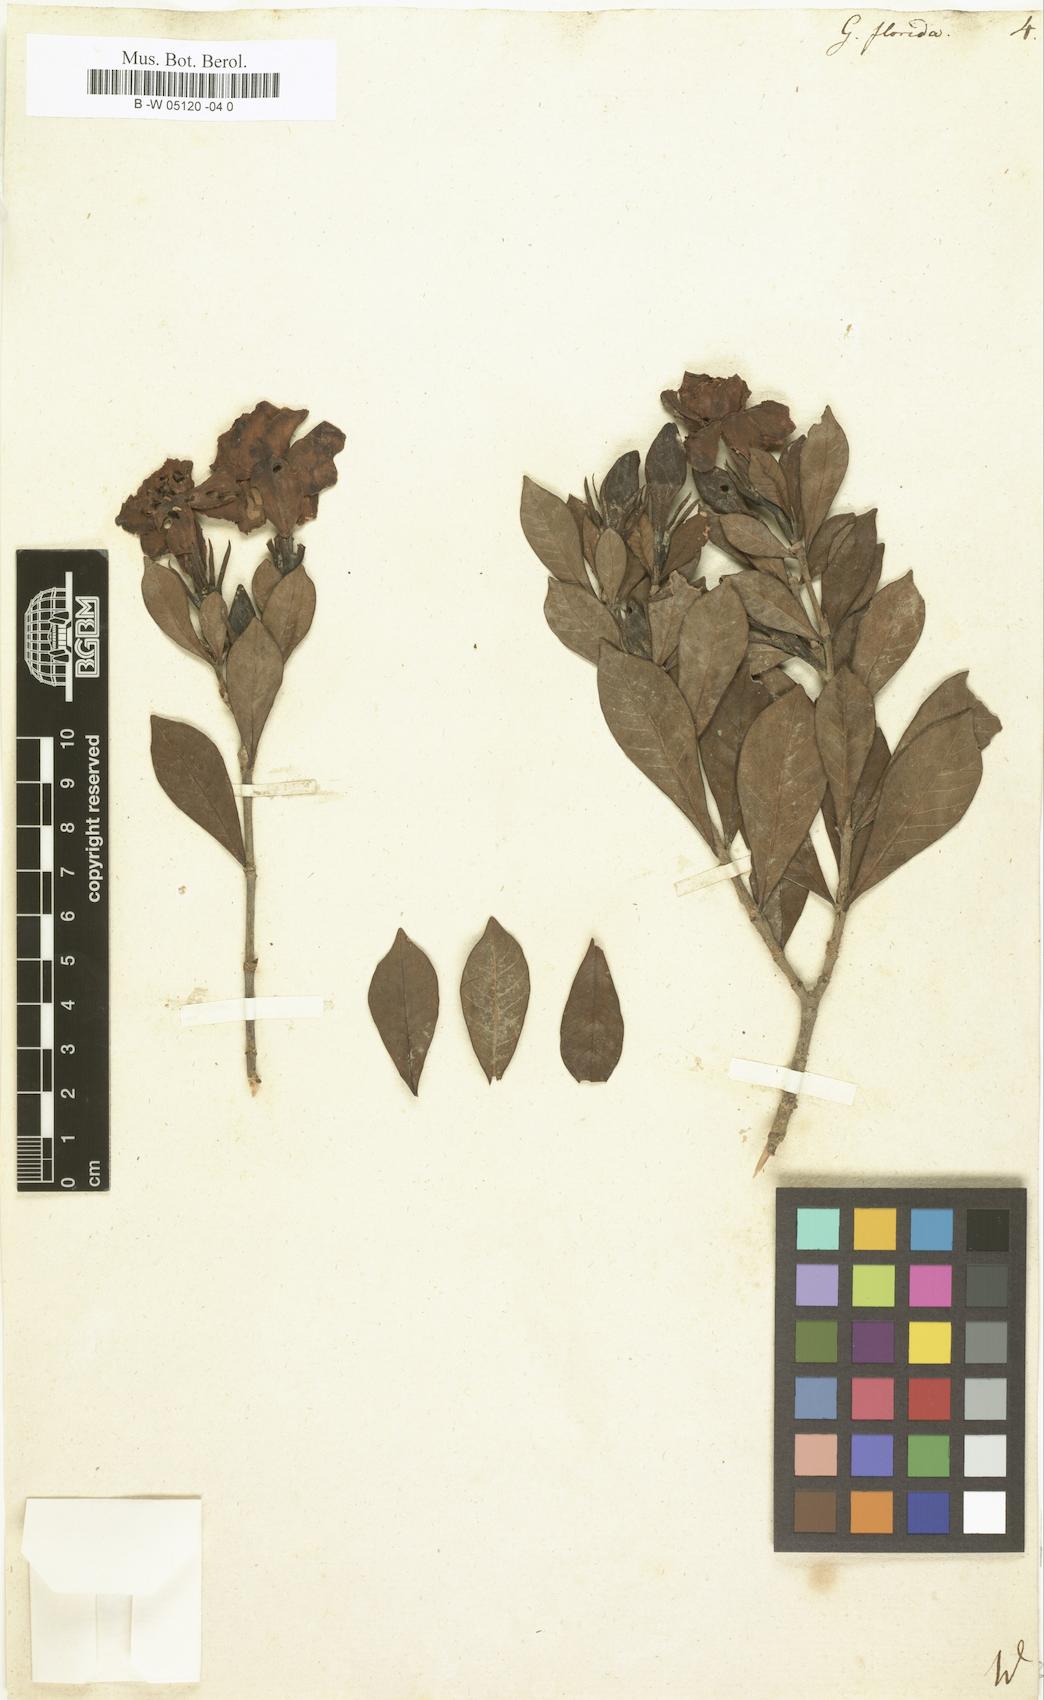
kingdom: Plantae
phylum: Tracheophyta
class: Magnoliopsida
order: Gentianales
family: Rubiaceae
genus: Gardenia
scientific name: Gardenia
